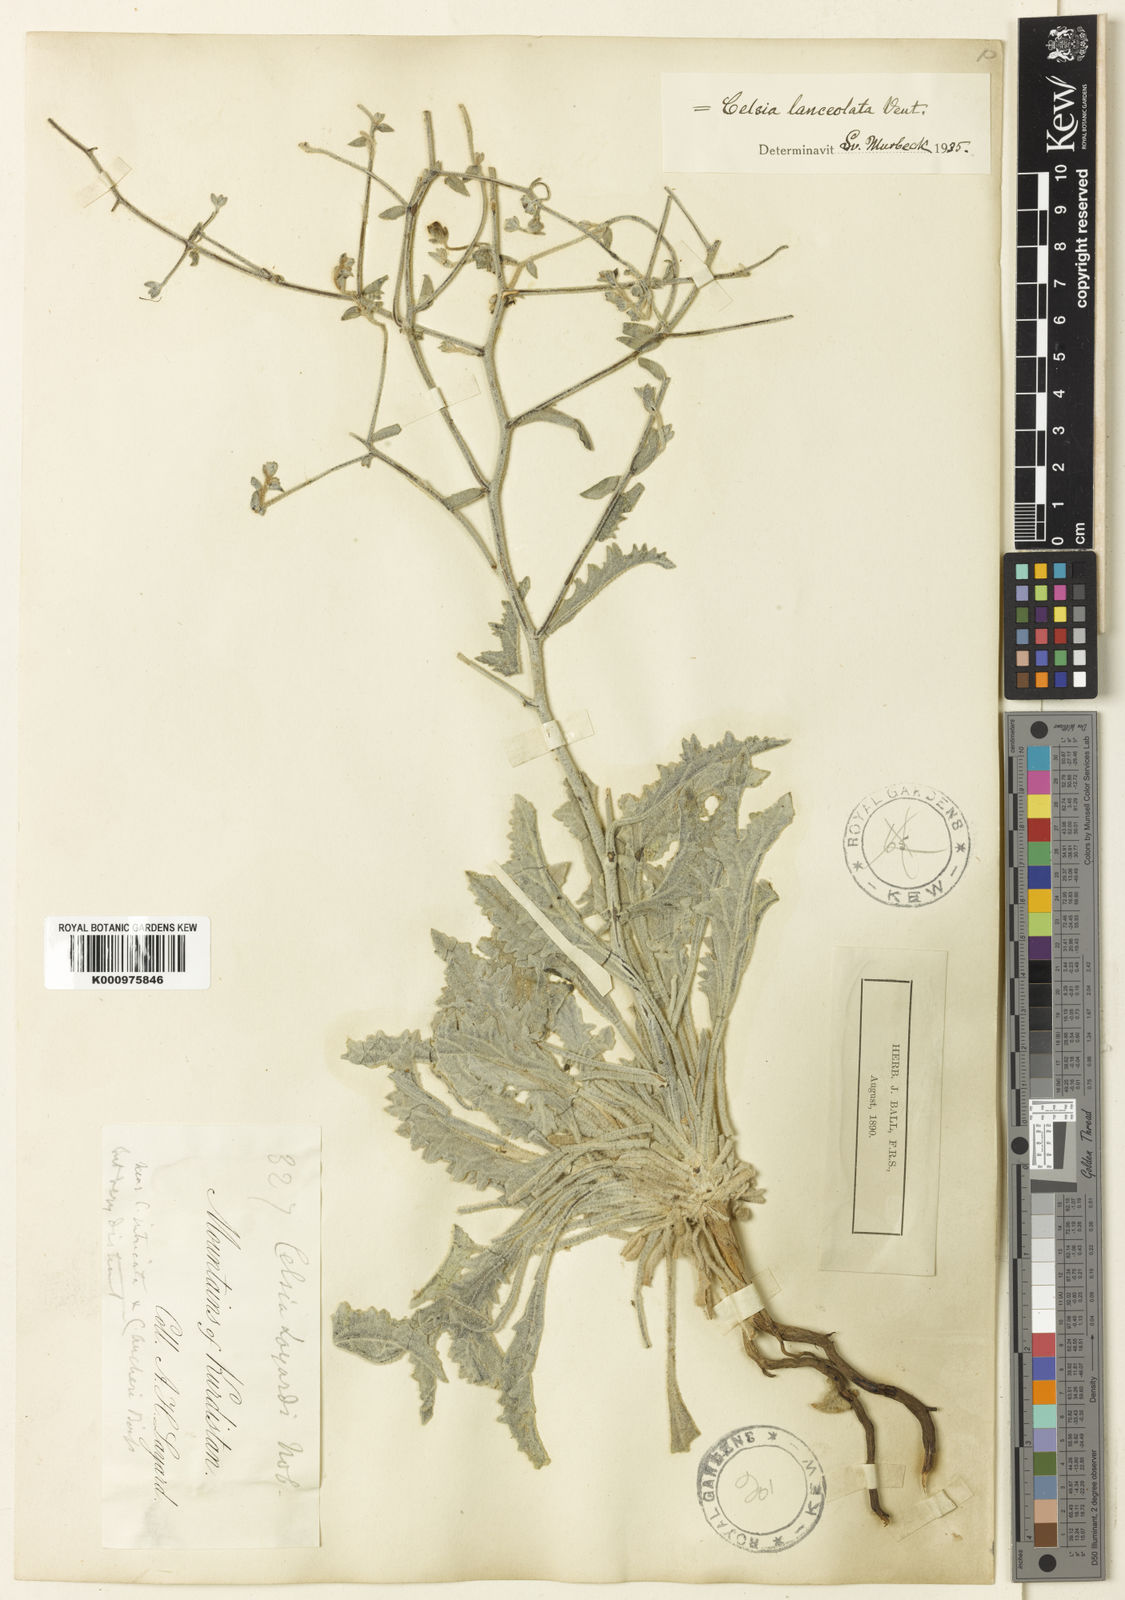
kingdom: Plantae
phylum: Tracheophyta
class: Magnoliopsida
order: Lamiales
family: Scrophulariaceae
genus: Verbascum
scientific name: Verbascum
